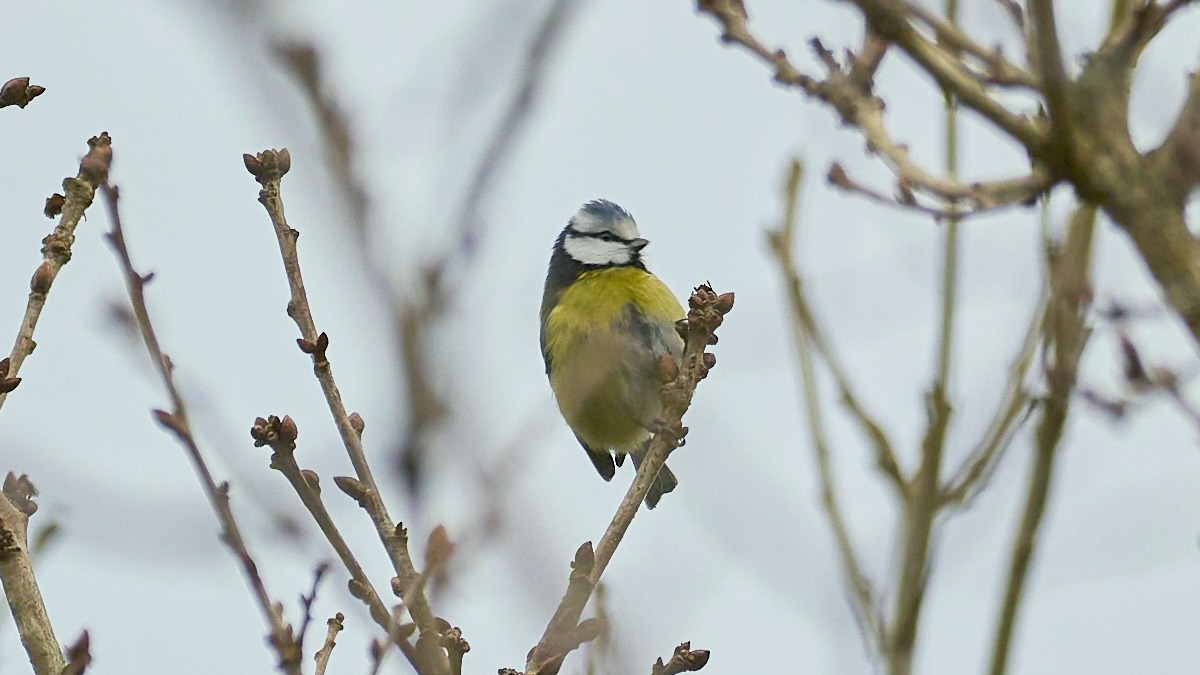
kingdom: Animalia
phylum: Chordata
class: Aves
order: Passeriformes
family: Paridae
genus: Cyanistes
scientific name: Cyanistes caeruleus
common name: Blåmejse
